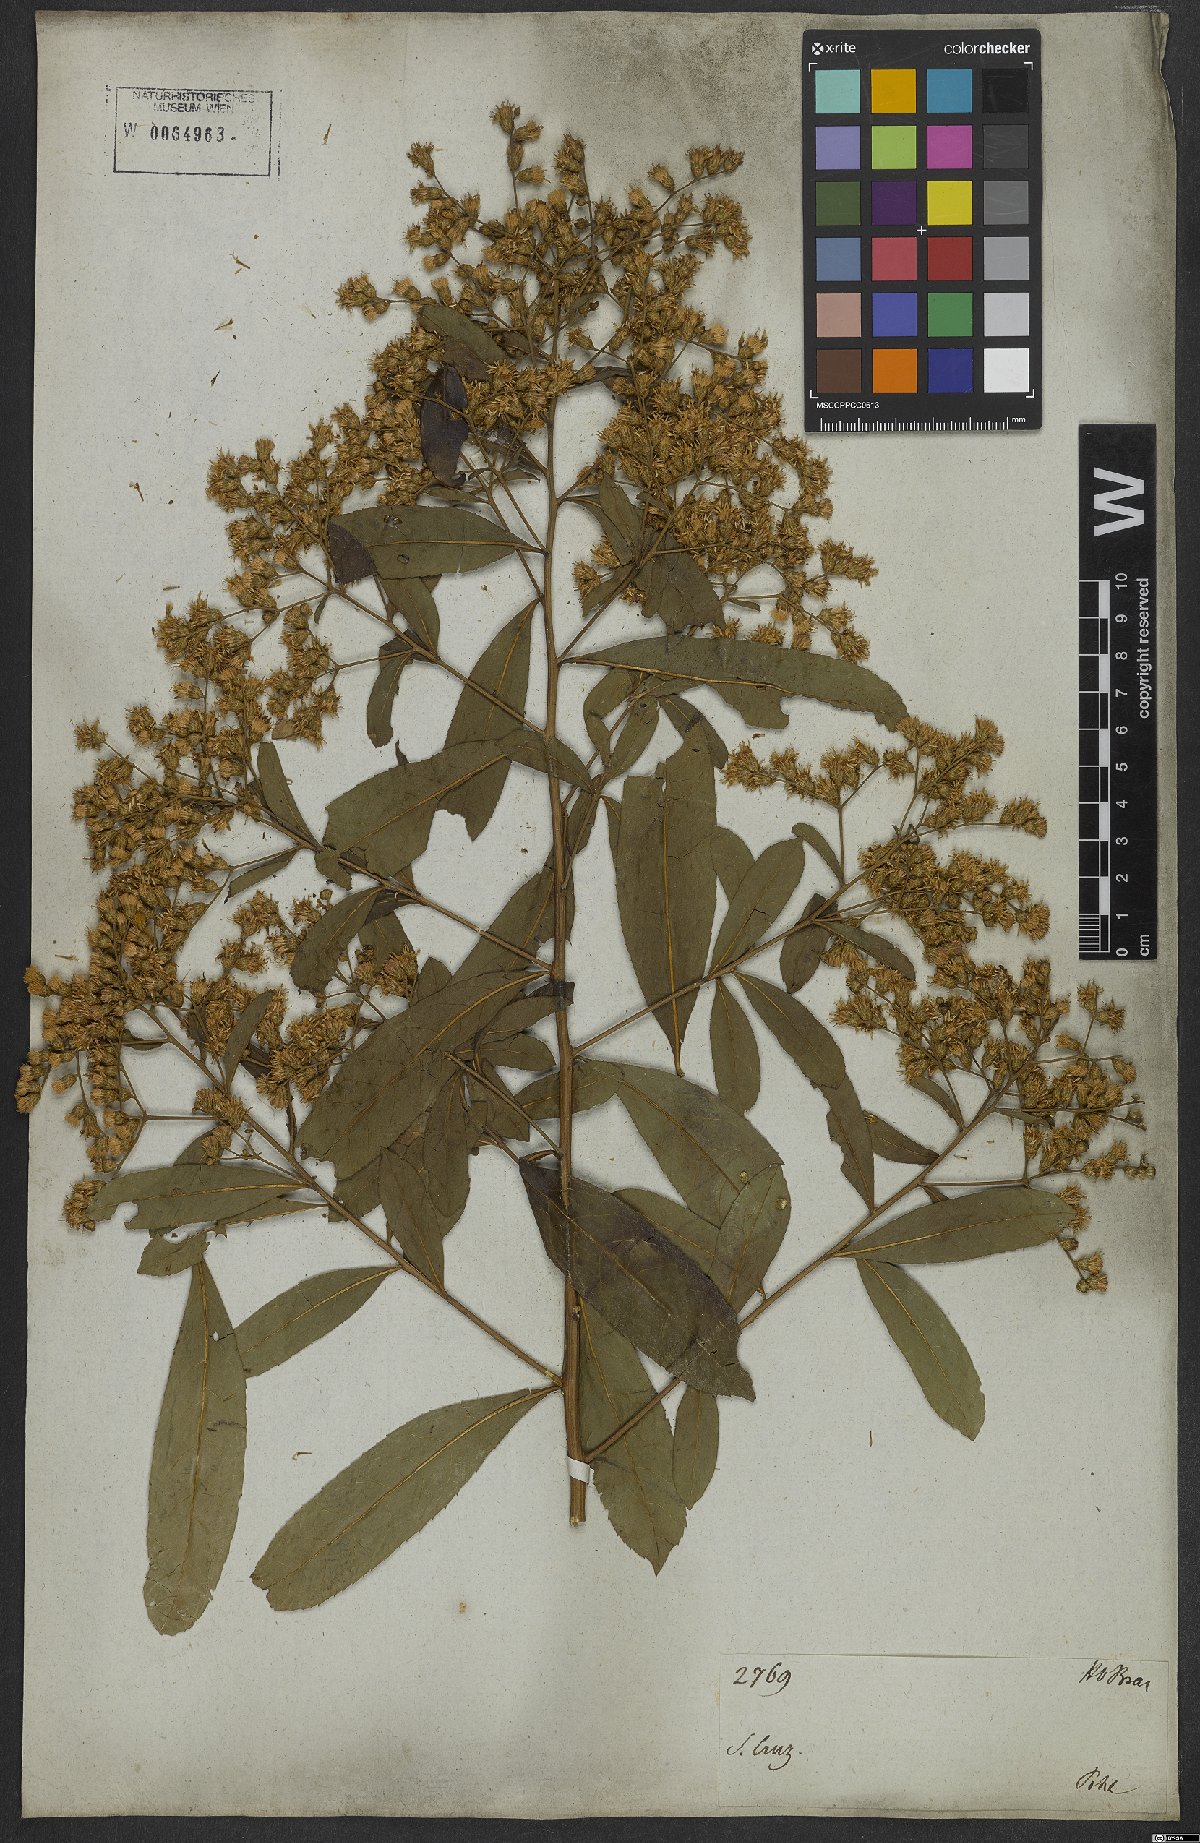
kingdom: Plantae
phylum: Tracheophyta
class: Magnoliopsida
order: Asterales
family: Asteraceae
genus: Vernonanthura
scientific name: Vernonanthura membranacea
